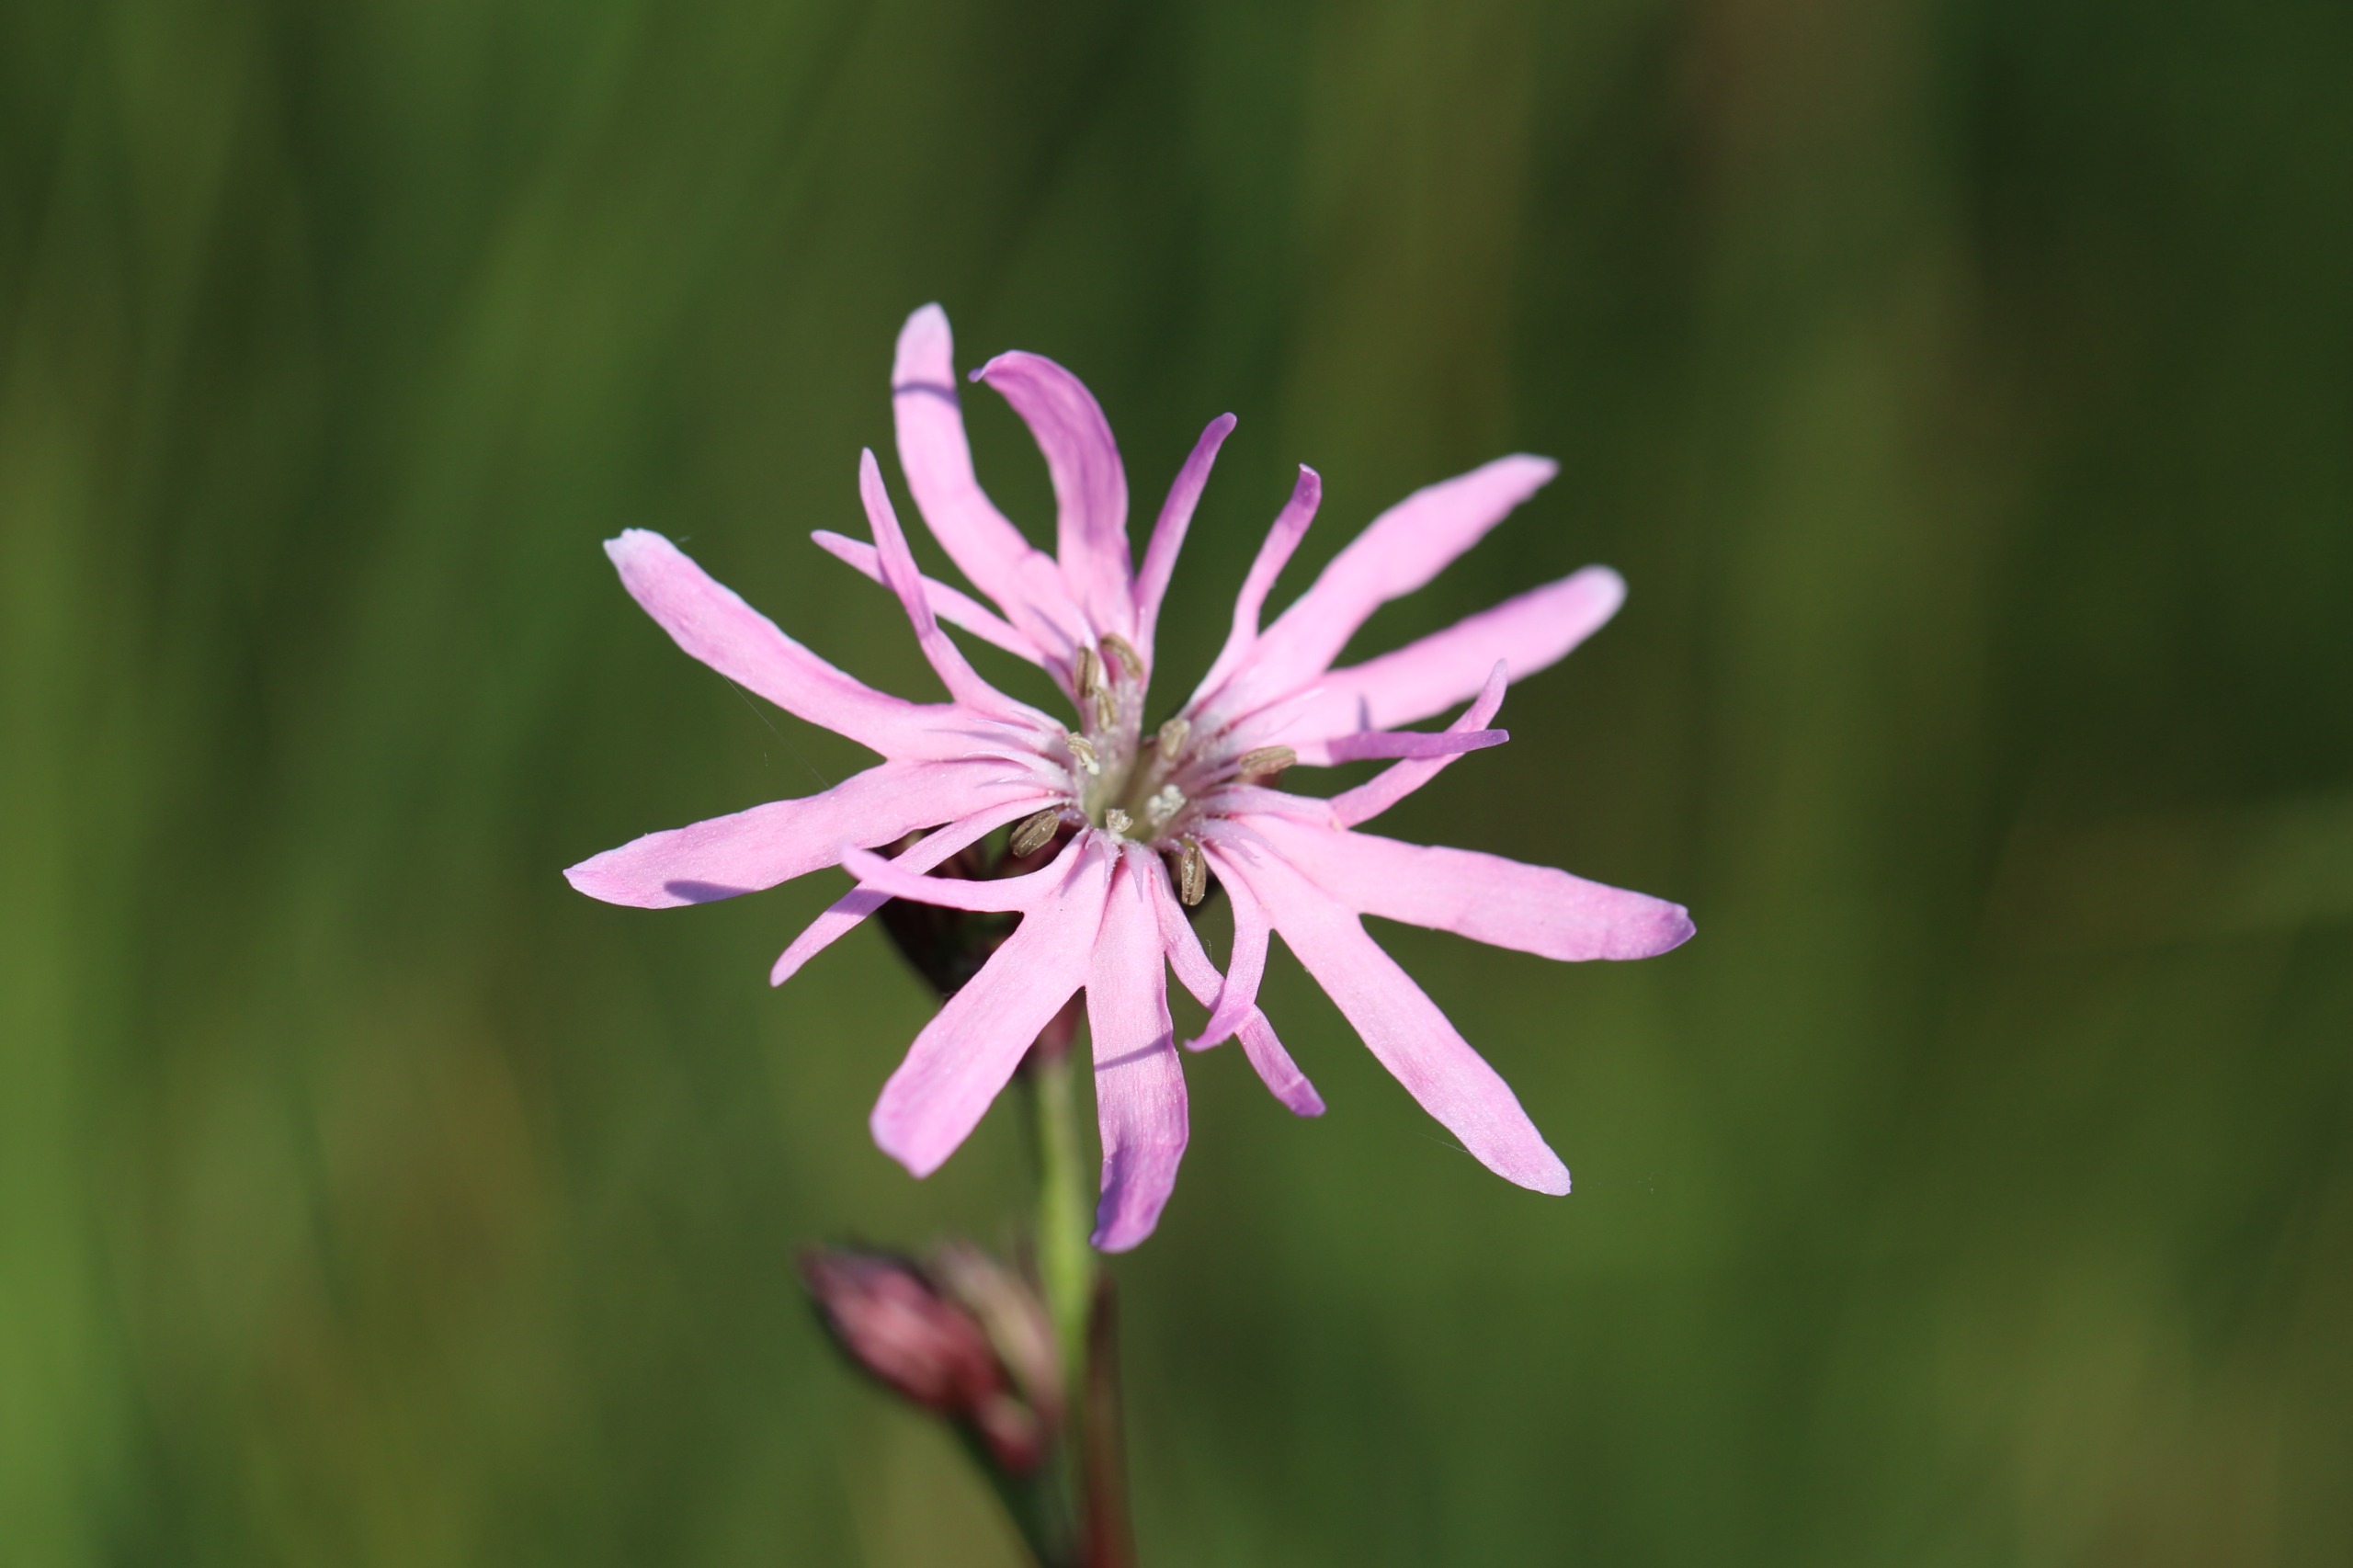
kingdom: Plantae
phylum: Tracheophyta
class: Magnoliopsida
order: Caryophyllales
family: Caryophyllaceae
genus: Silene
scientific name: Silene flos-cuculi
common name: Trævlekrone
